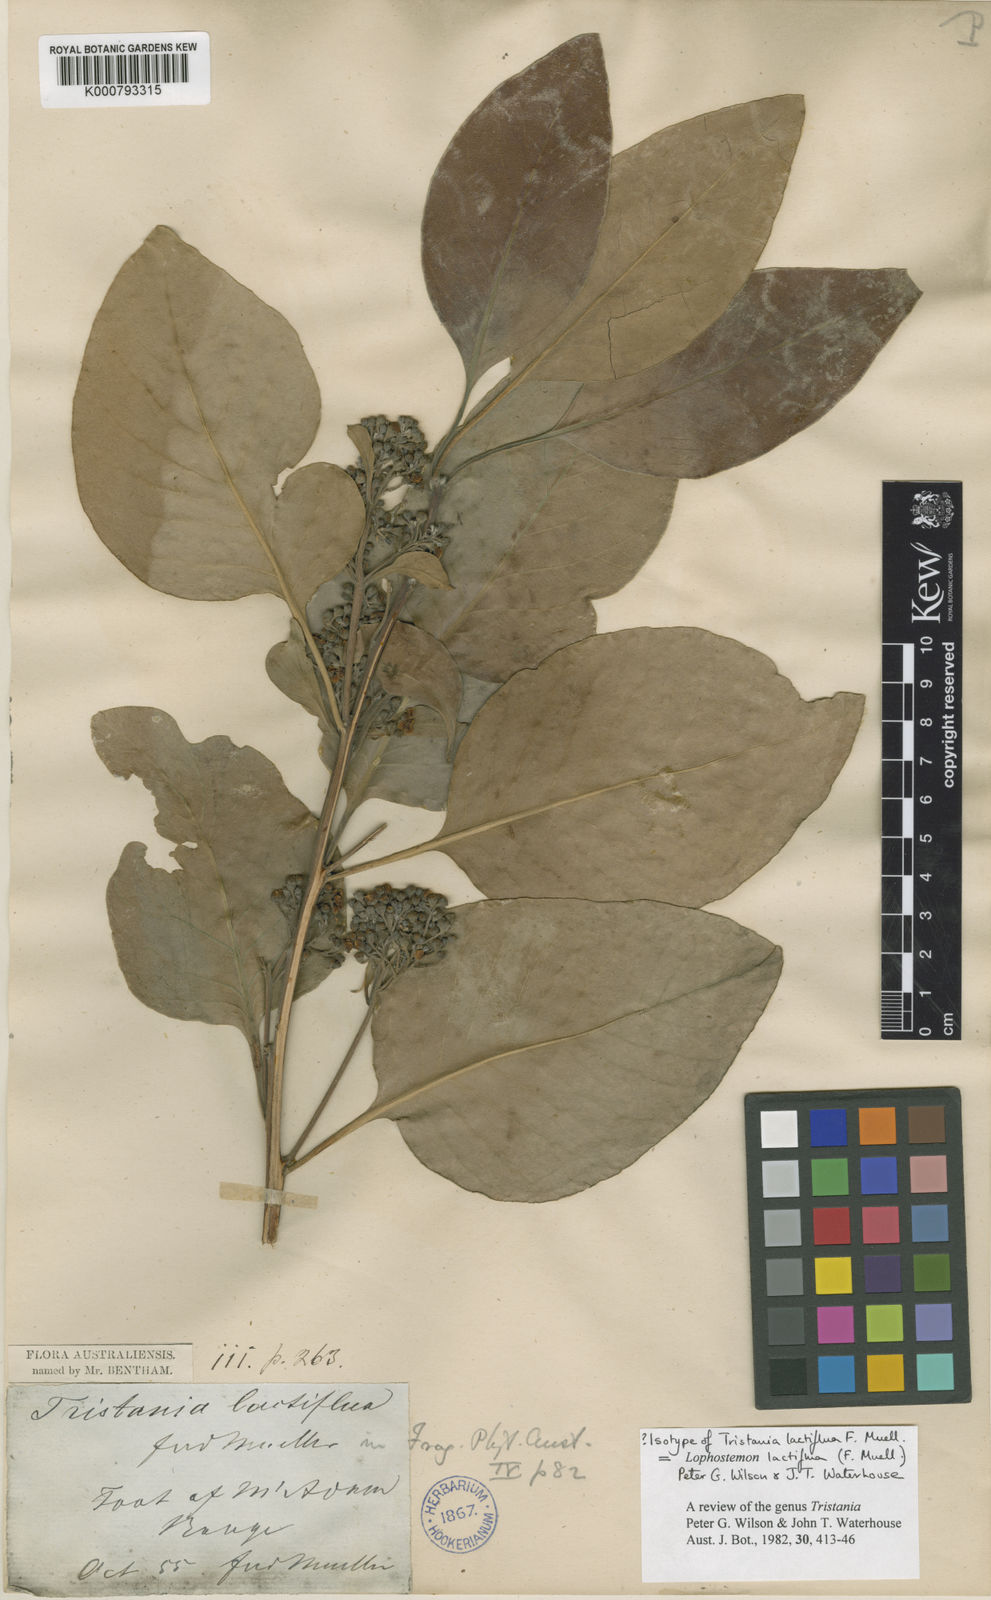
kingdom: Plantae
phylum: Tracheophyta
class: Magnoliopsida
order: Myrtales
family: Myrtaceae
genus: Lophostemon
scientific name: Lophostemon lactifluus
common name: Milky box
